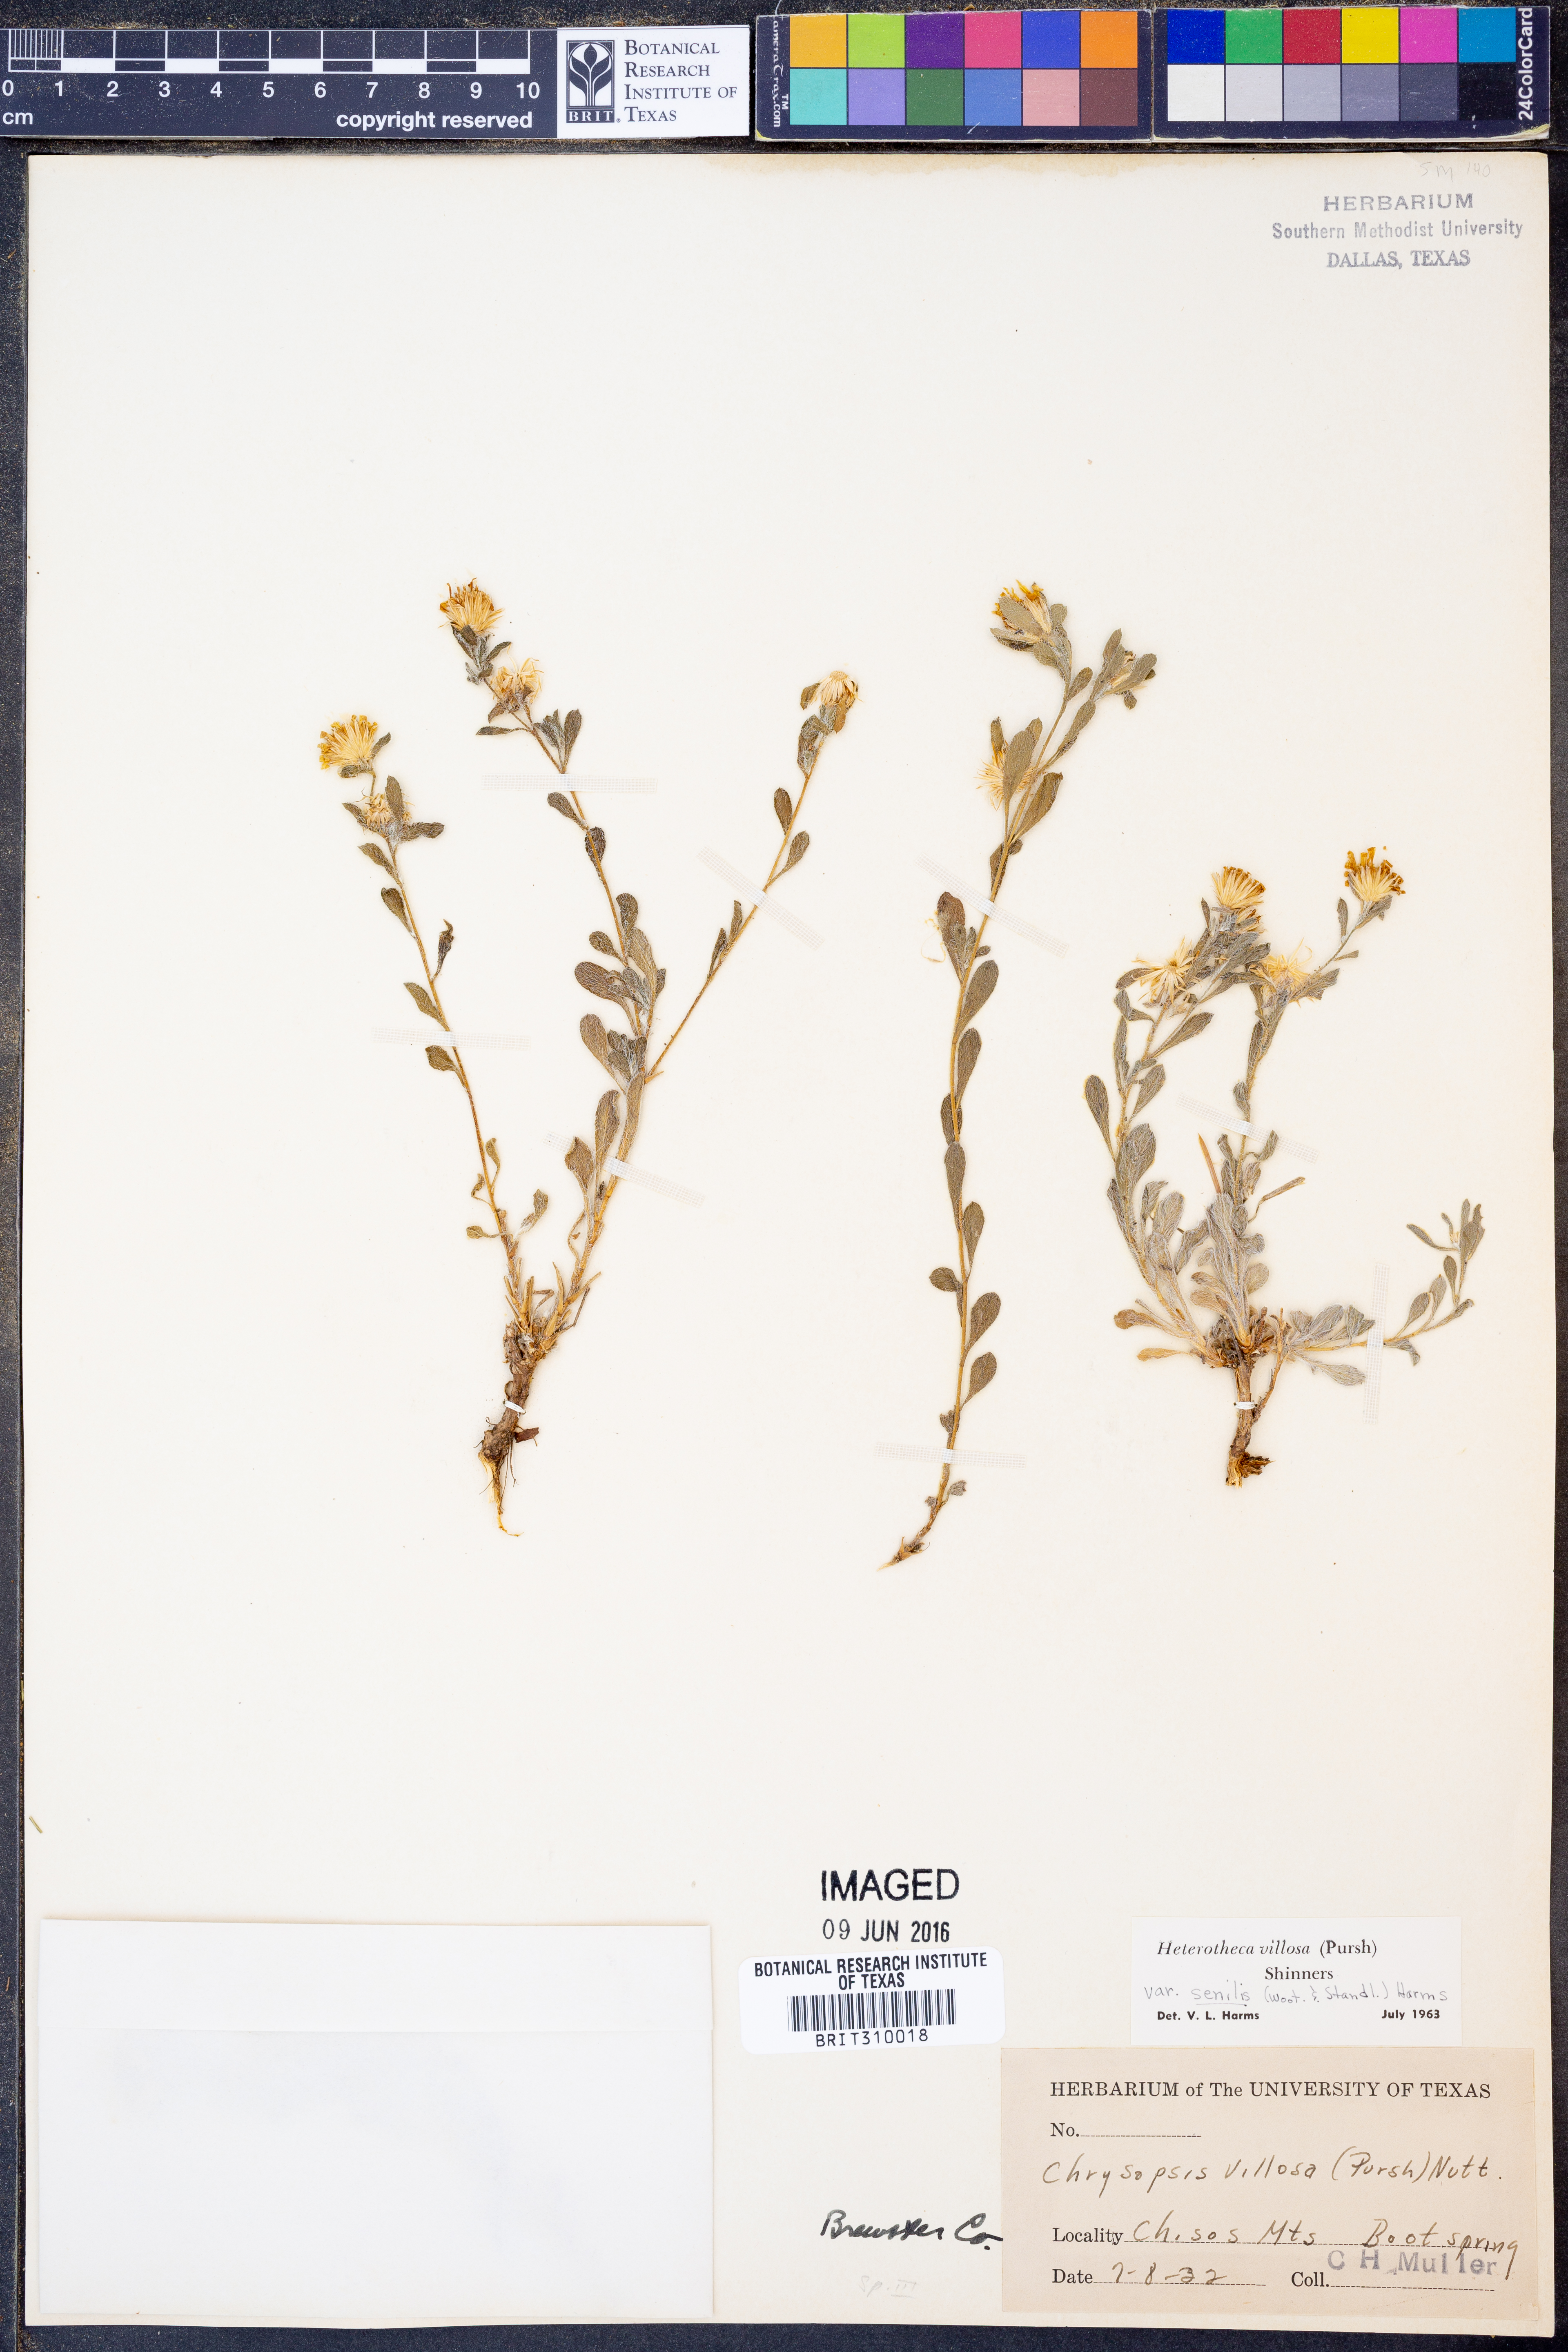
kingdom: Plantae
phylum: Tracheophyta
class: Magnoliopsida
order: Asterales
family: Asteraceae
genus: Heterotheca
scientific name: Heterotheca villosa
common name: Hairy false goldenaster
